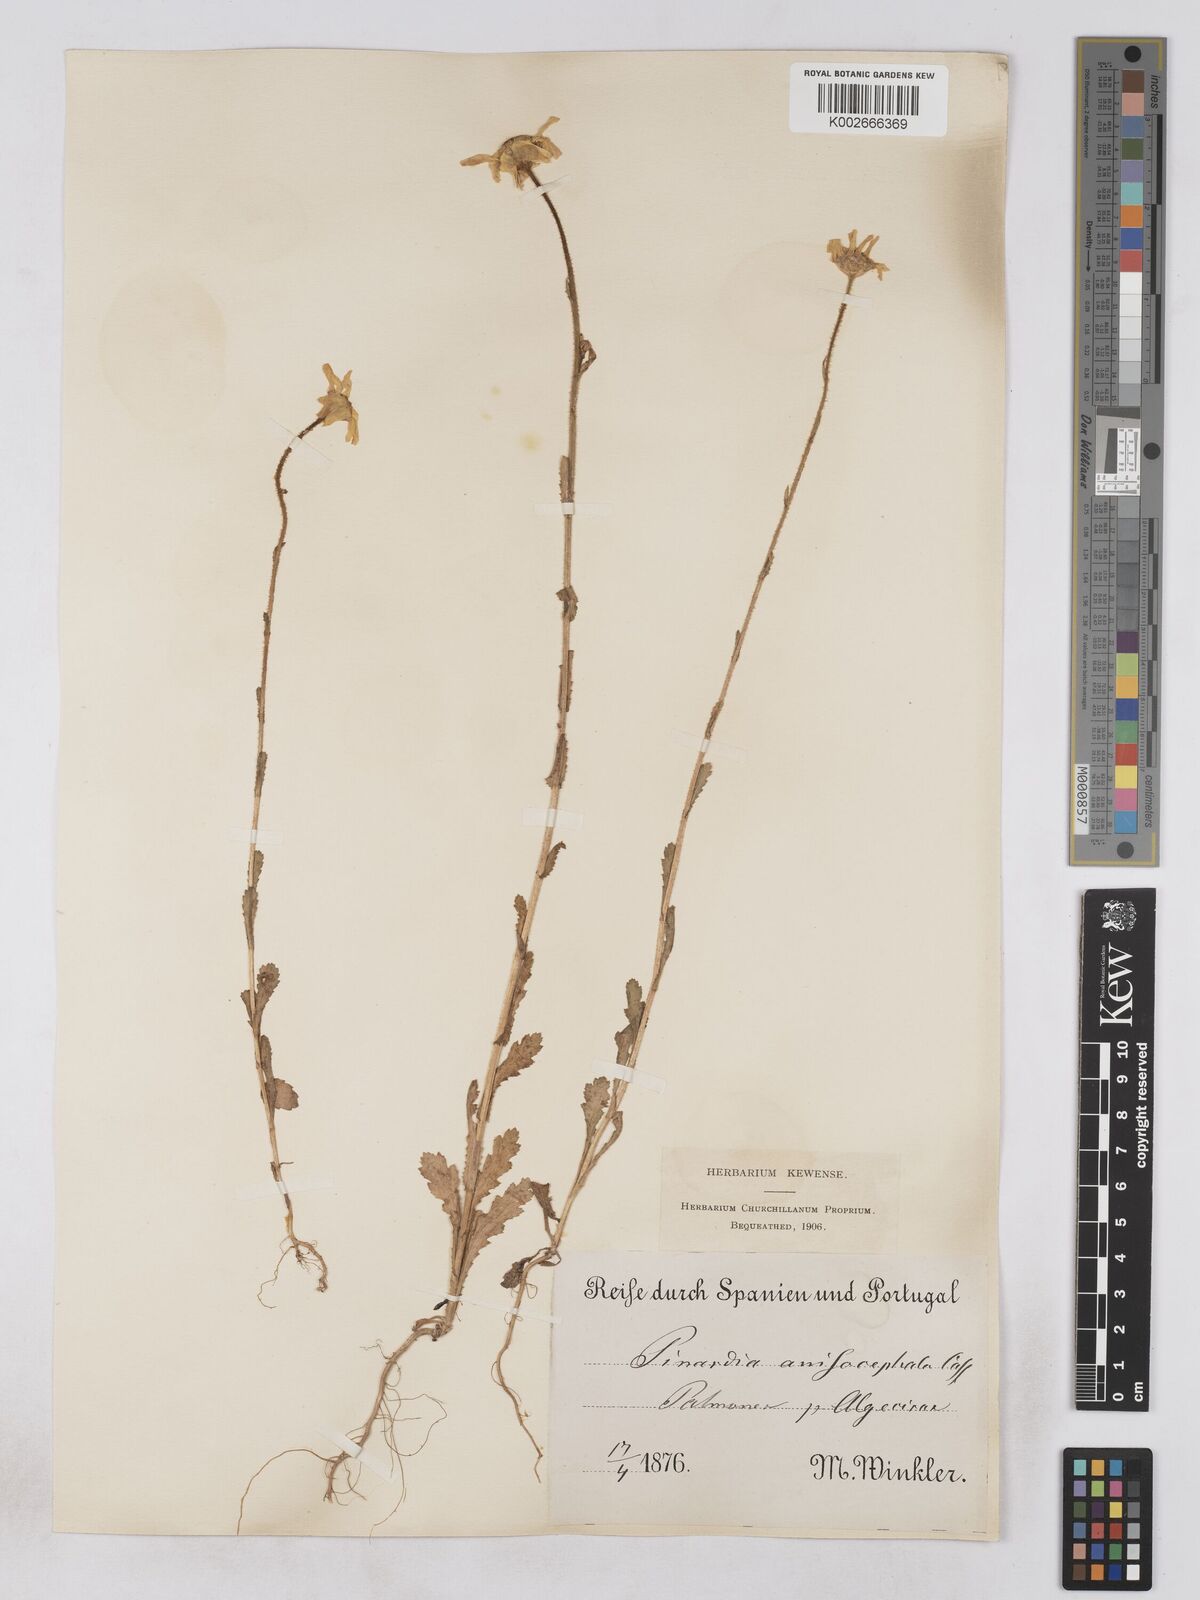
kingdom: Plantae
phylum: Tracheophyta
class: Magnoliopsida
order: Asterales
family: Asteraceae
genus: Heteranthemis
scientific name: Heteranthemis
